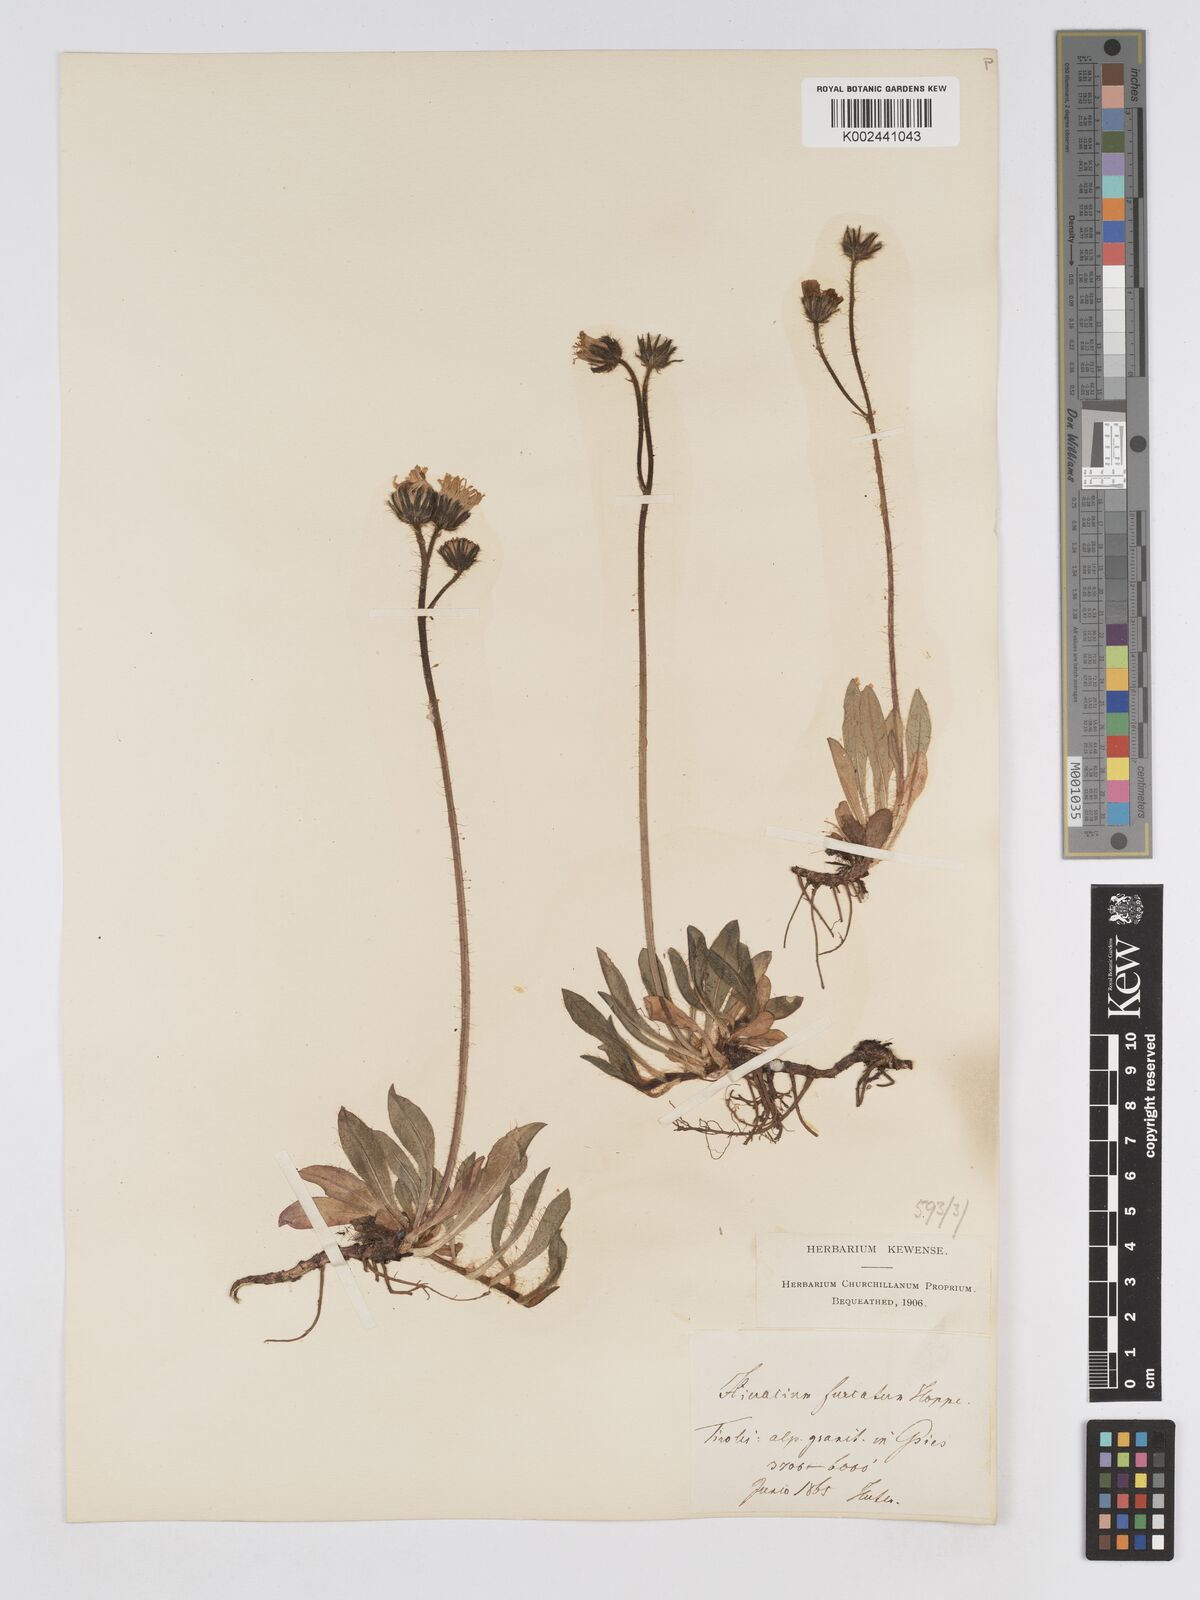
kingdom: Plantae
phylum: Tracheophyta
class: Magnoliopsida
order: Asterales
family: Asteraceae
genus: Pilosella
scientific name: Pilosella sphaerocephala
